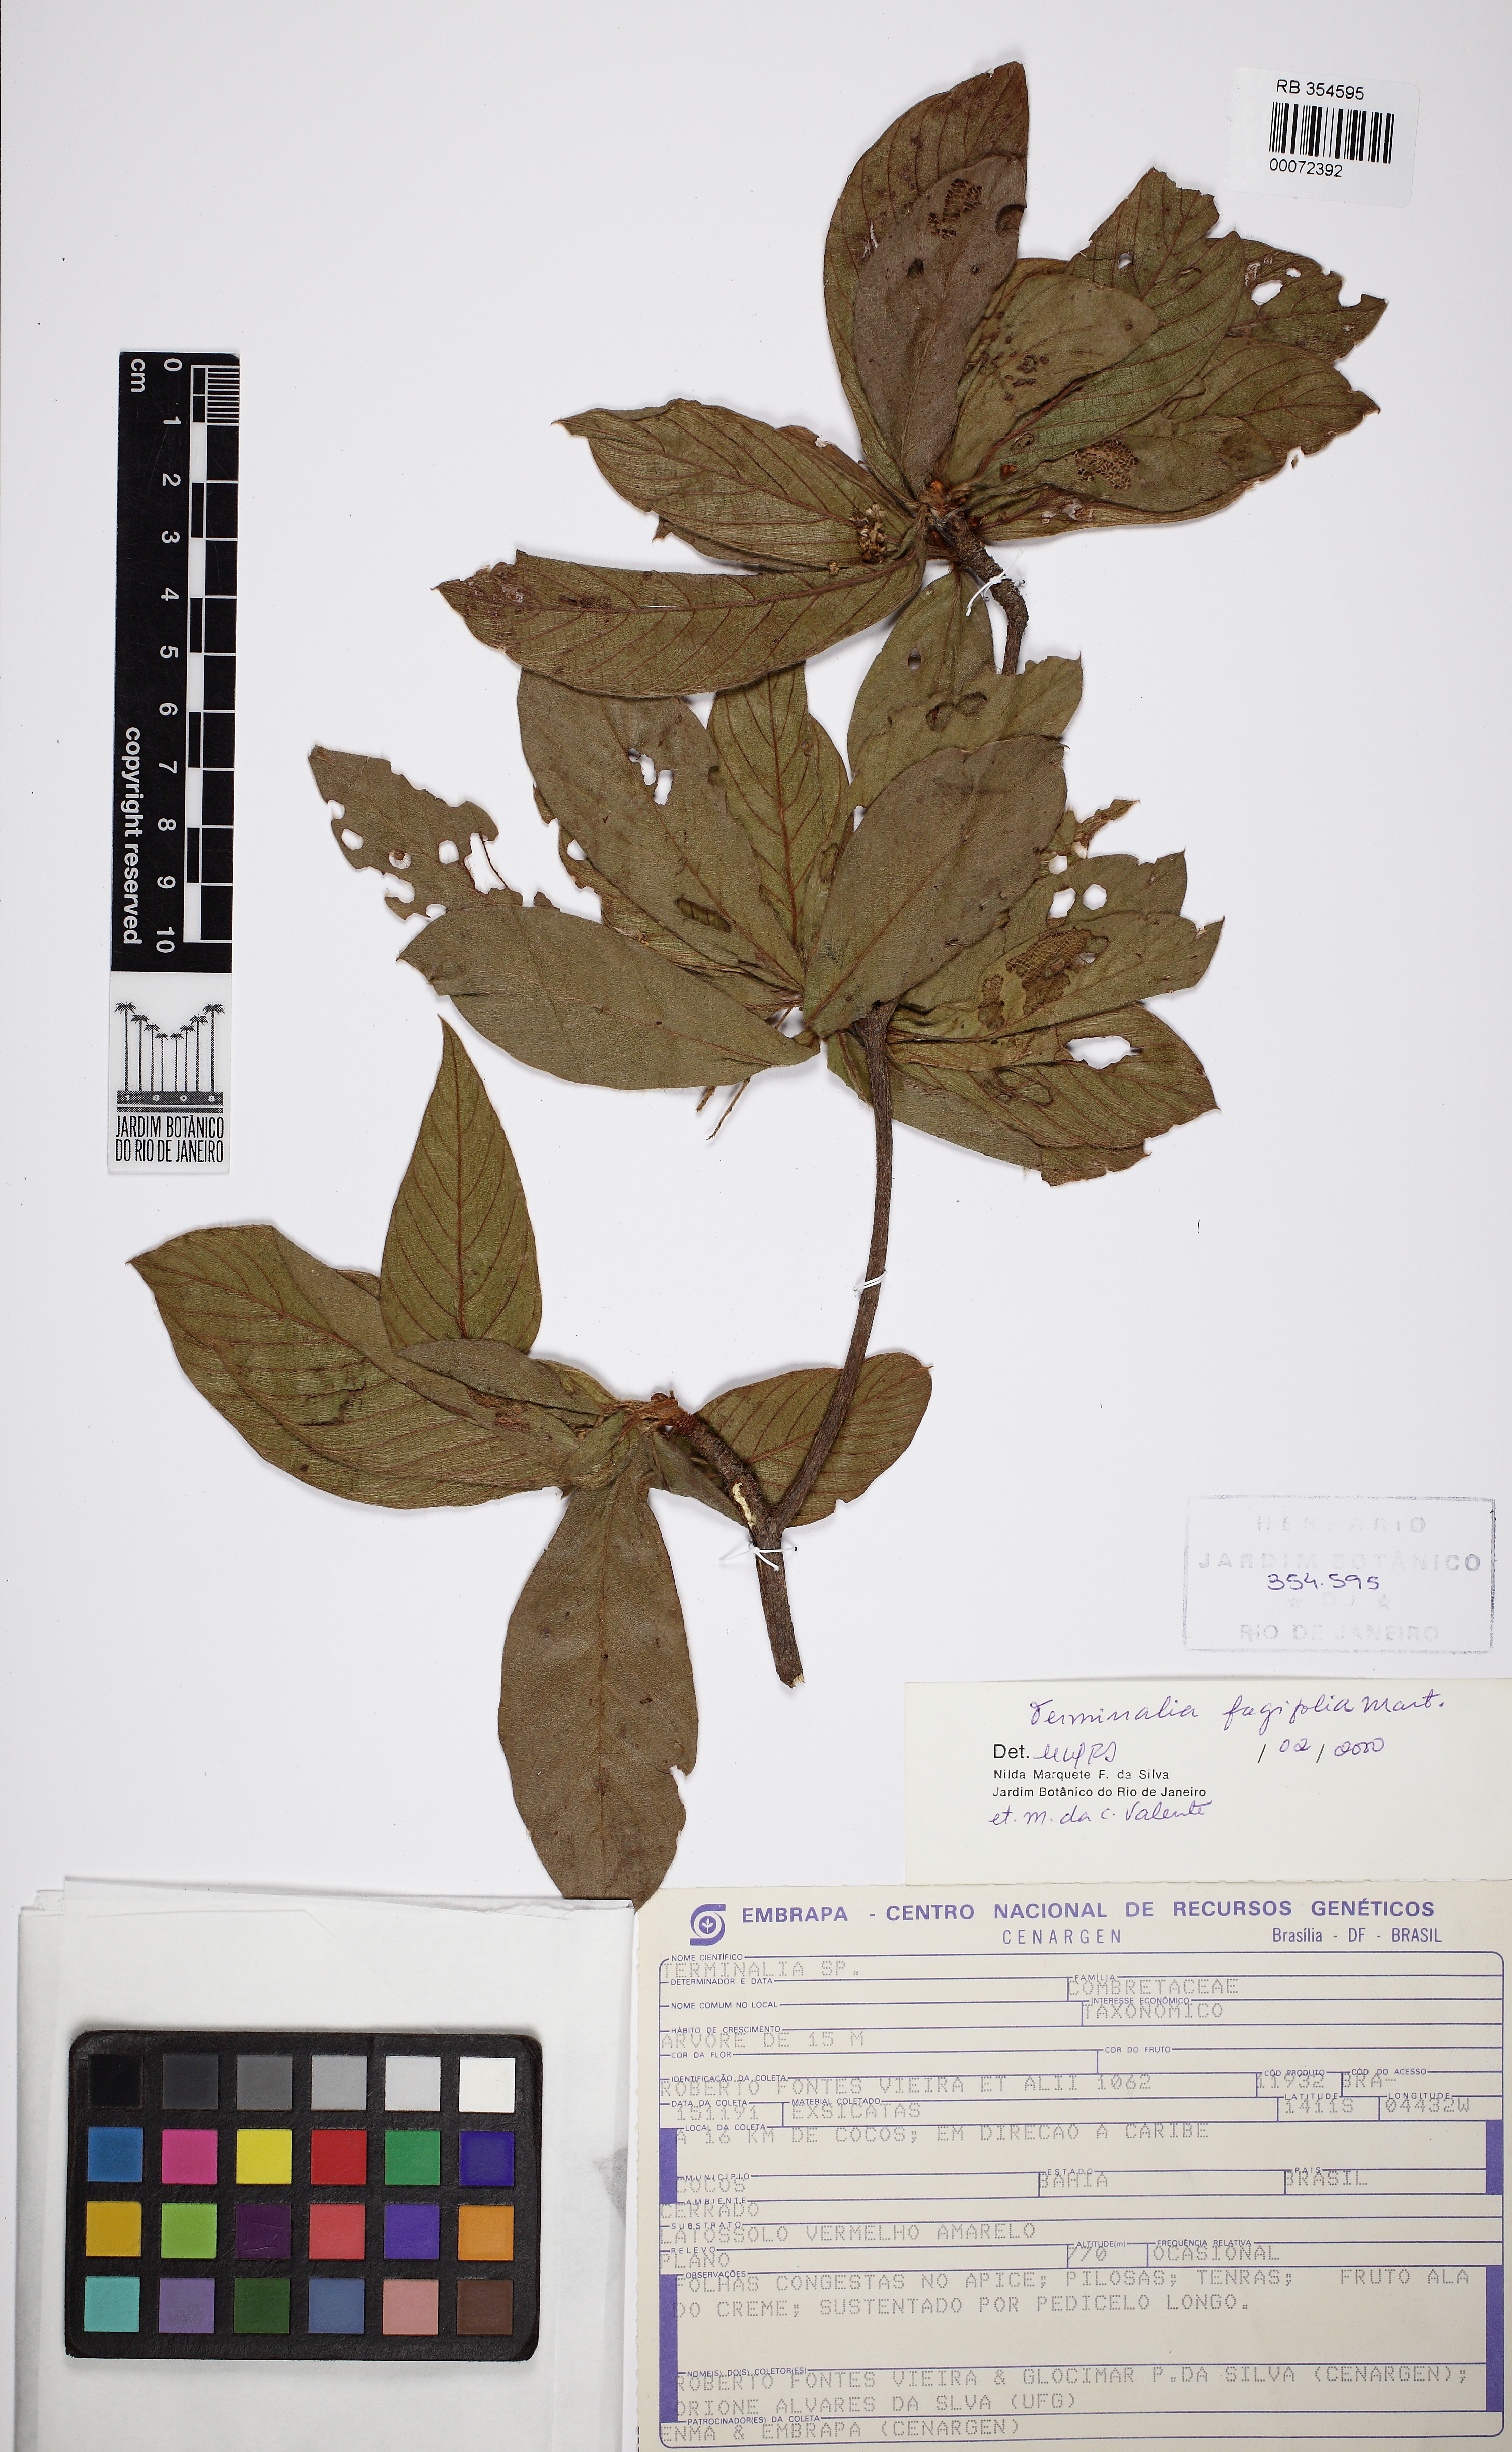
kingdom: Plantae
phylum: Tracheophyta
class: Magnoliopsida
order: Myrtales
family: Combretaceae
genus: Terminalia
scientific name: Terminalia fagifolia
